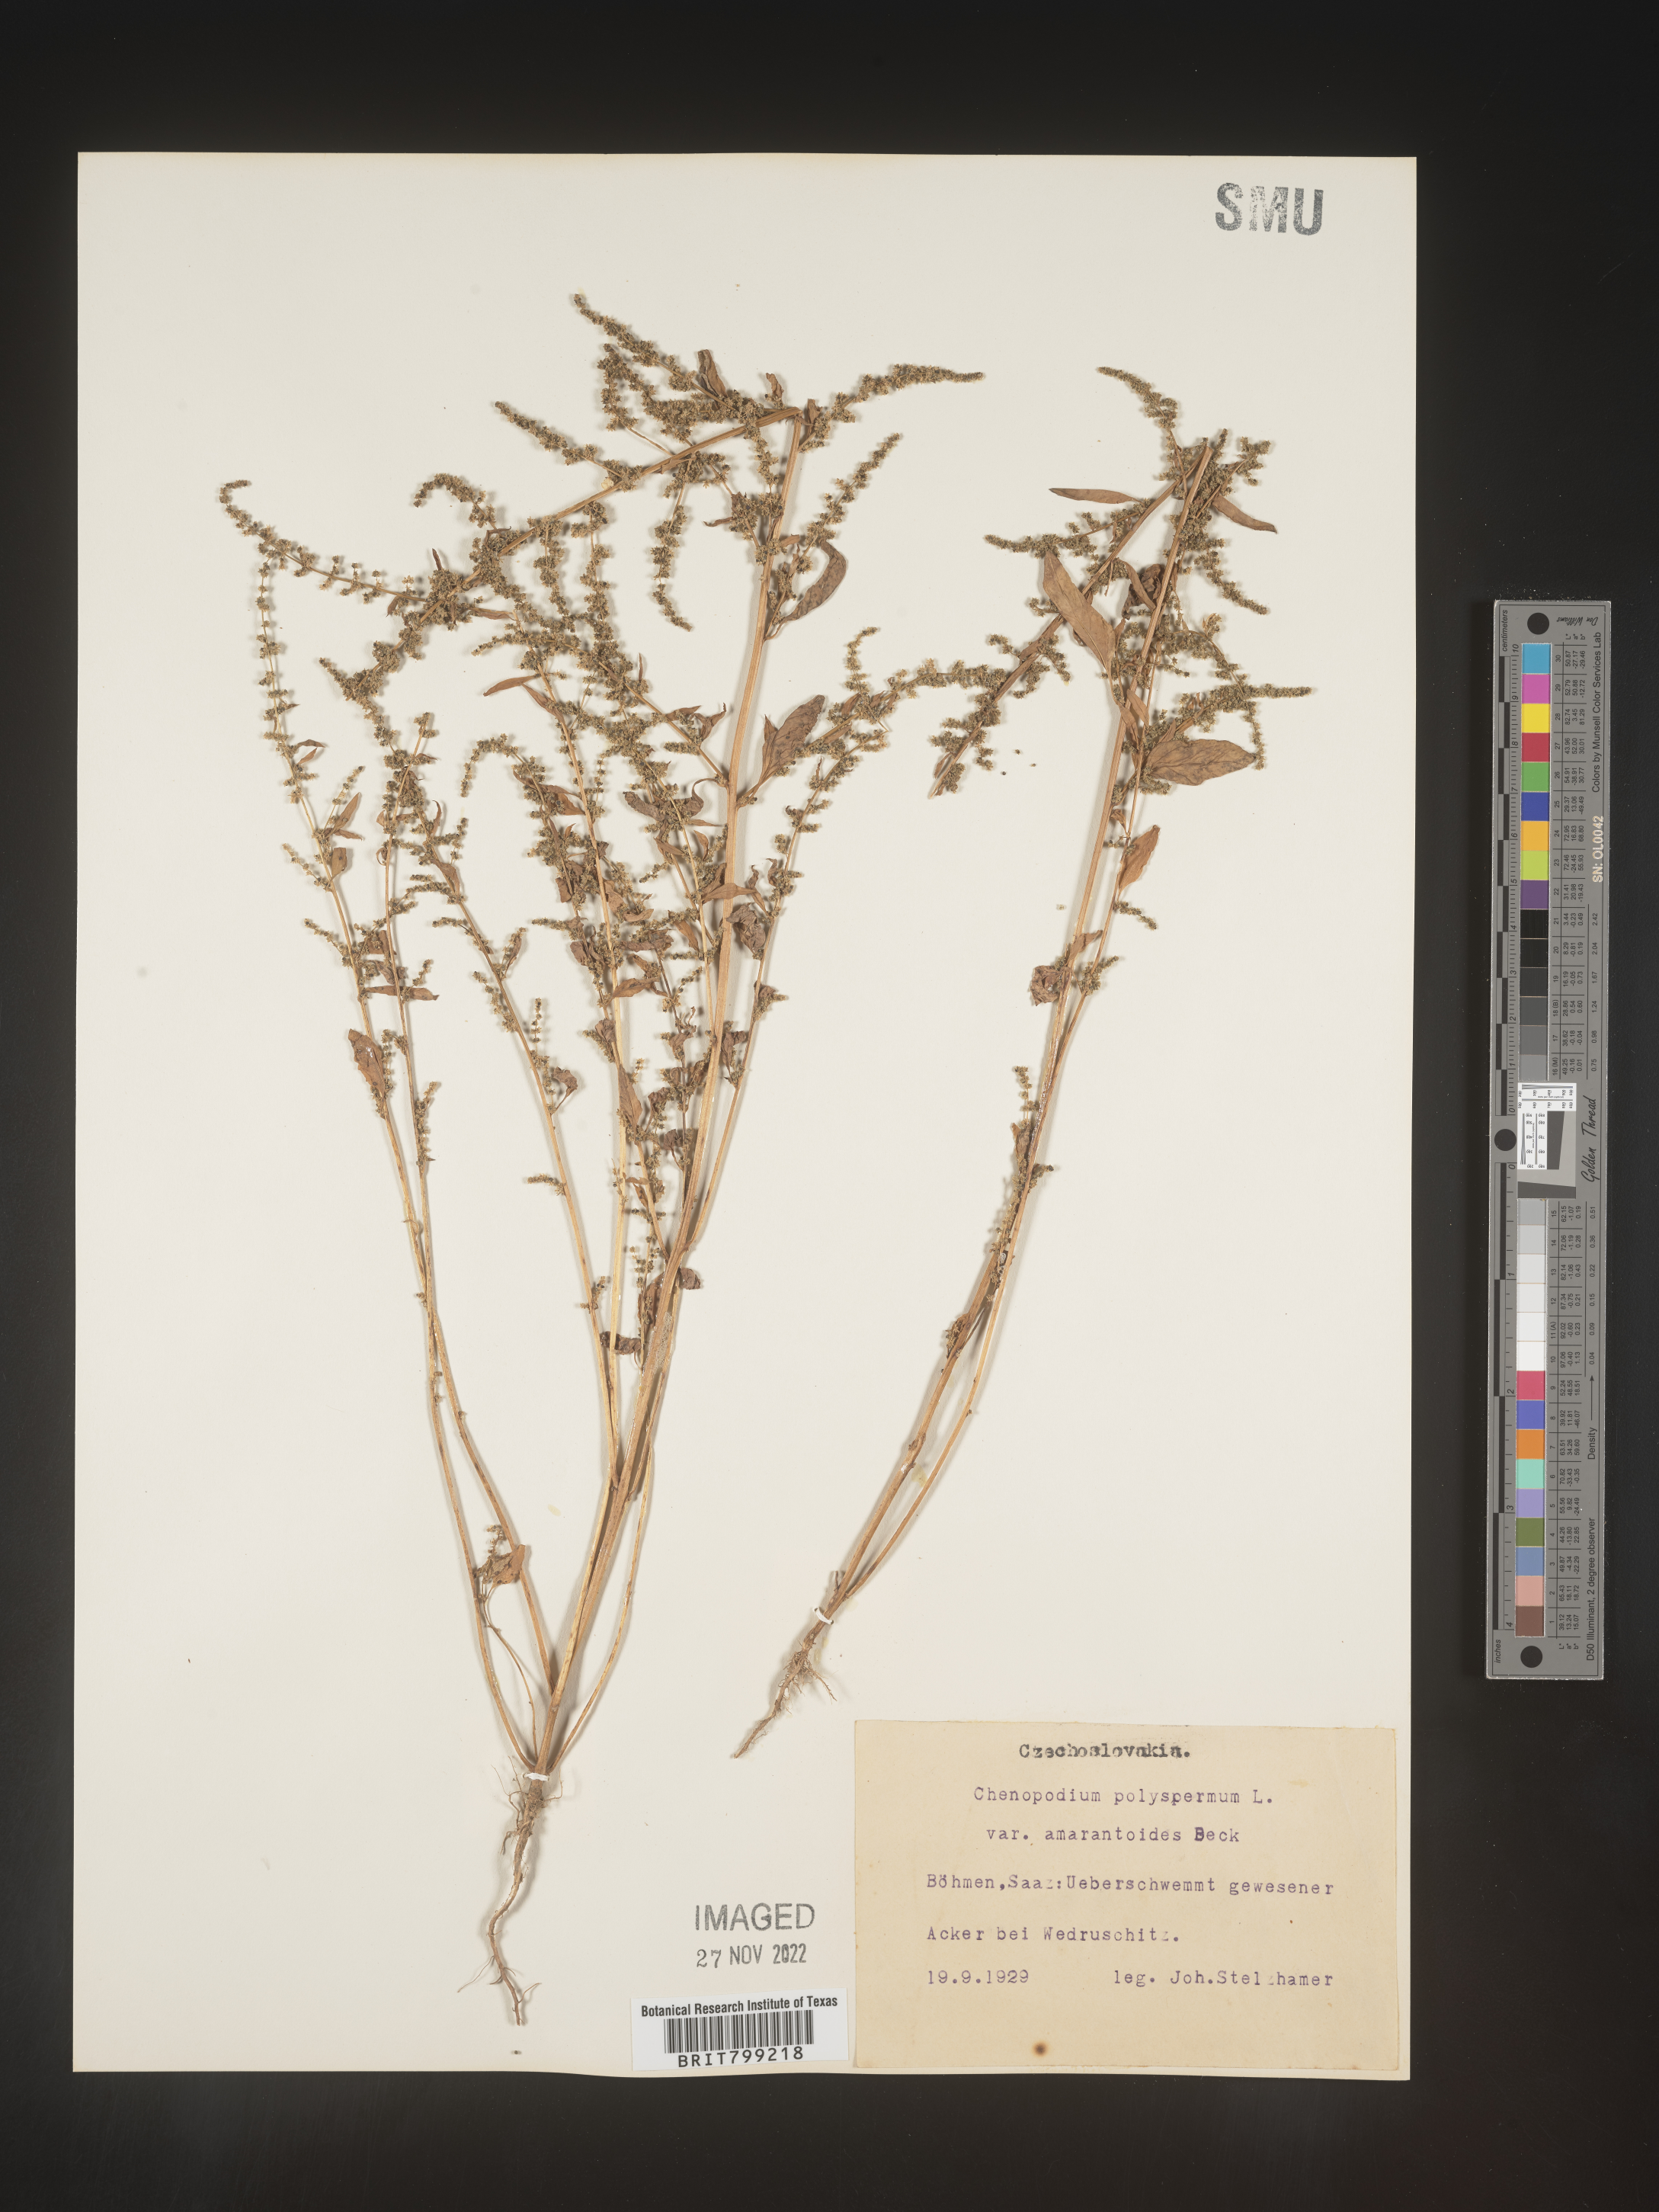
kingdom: Plantae
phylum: Tracheophyta
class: Magnoliopsida
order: Caryophyllales
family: Amaranthaceae
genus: Chenopodium
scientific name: Chenopodium
